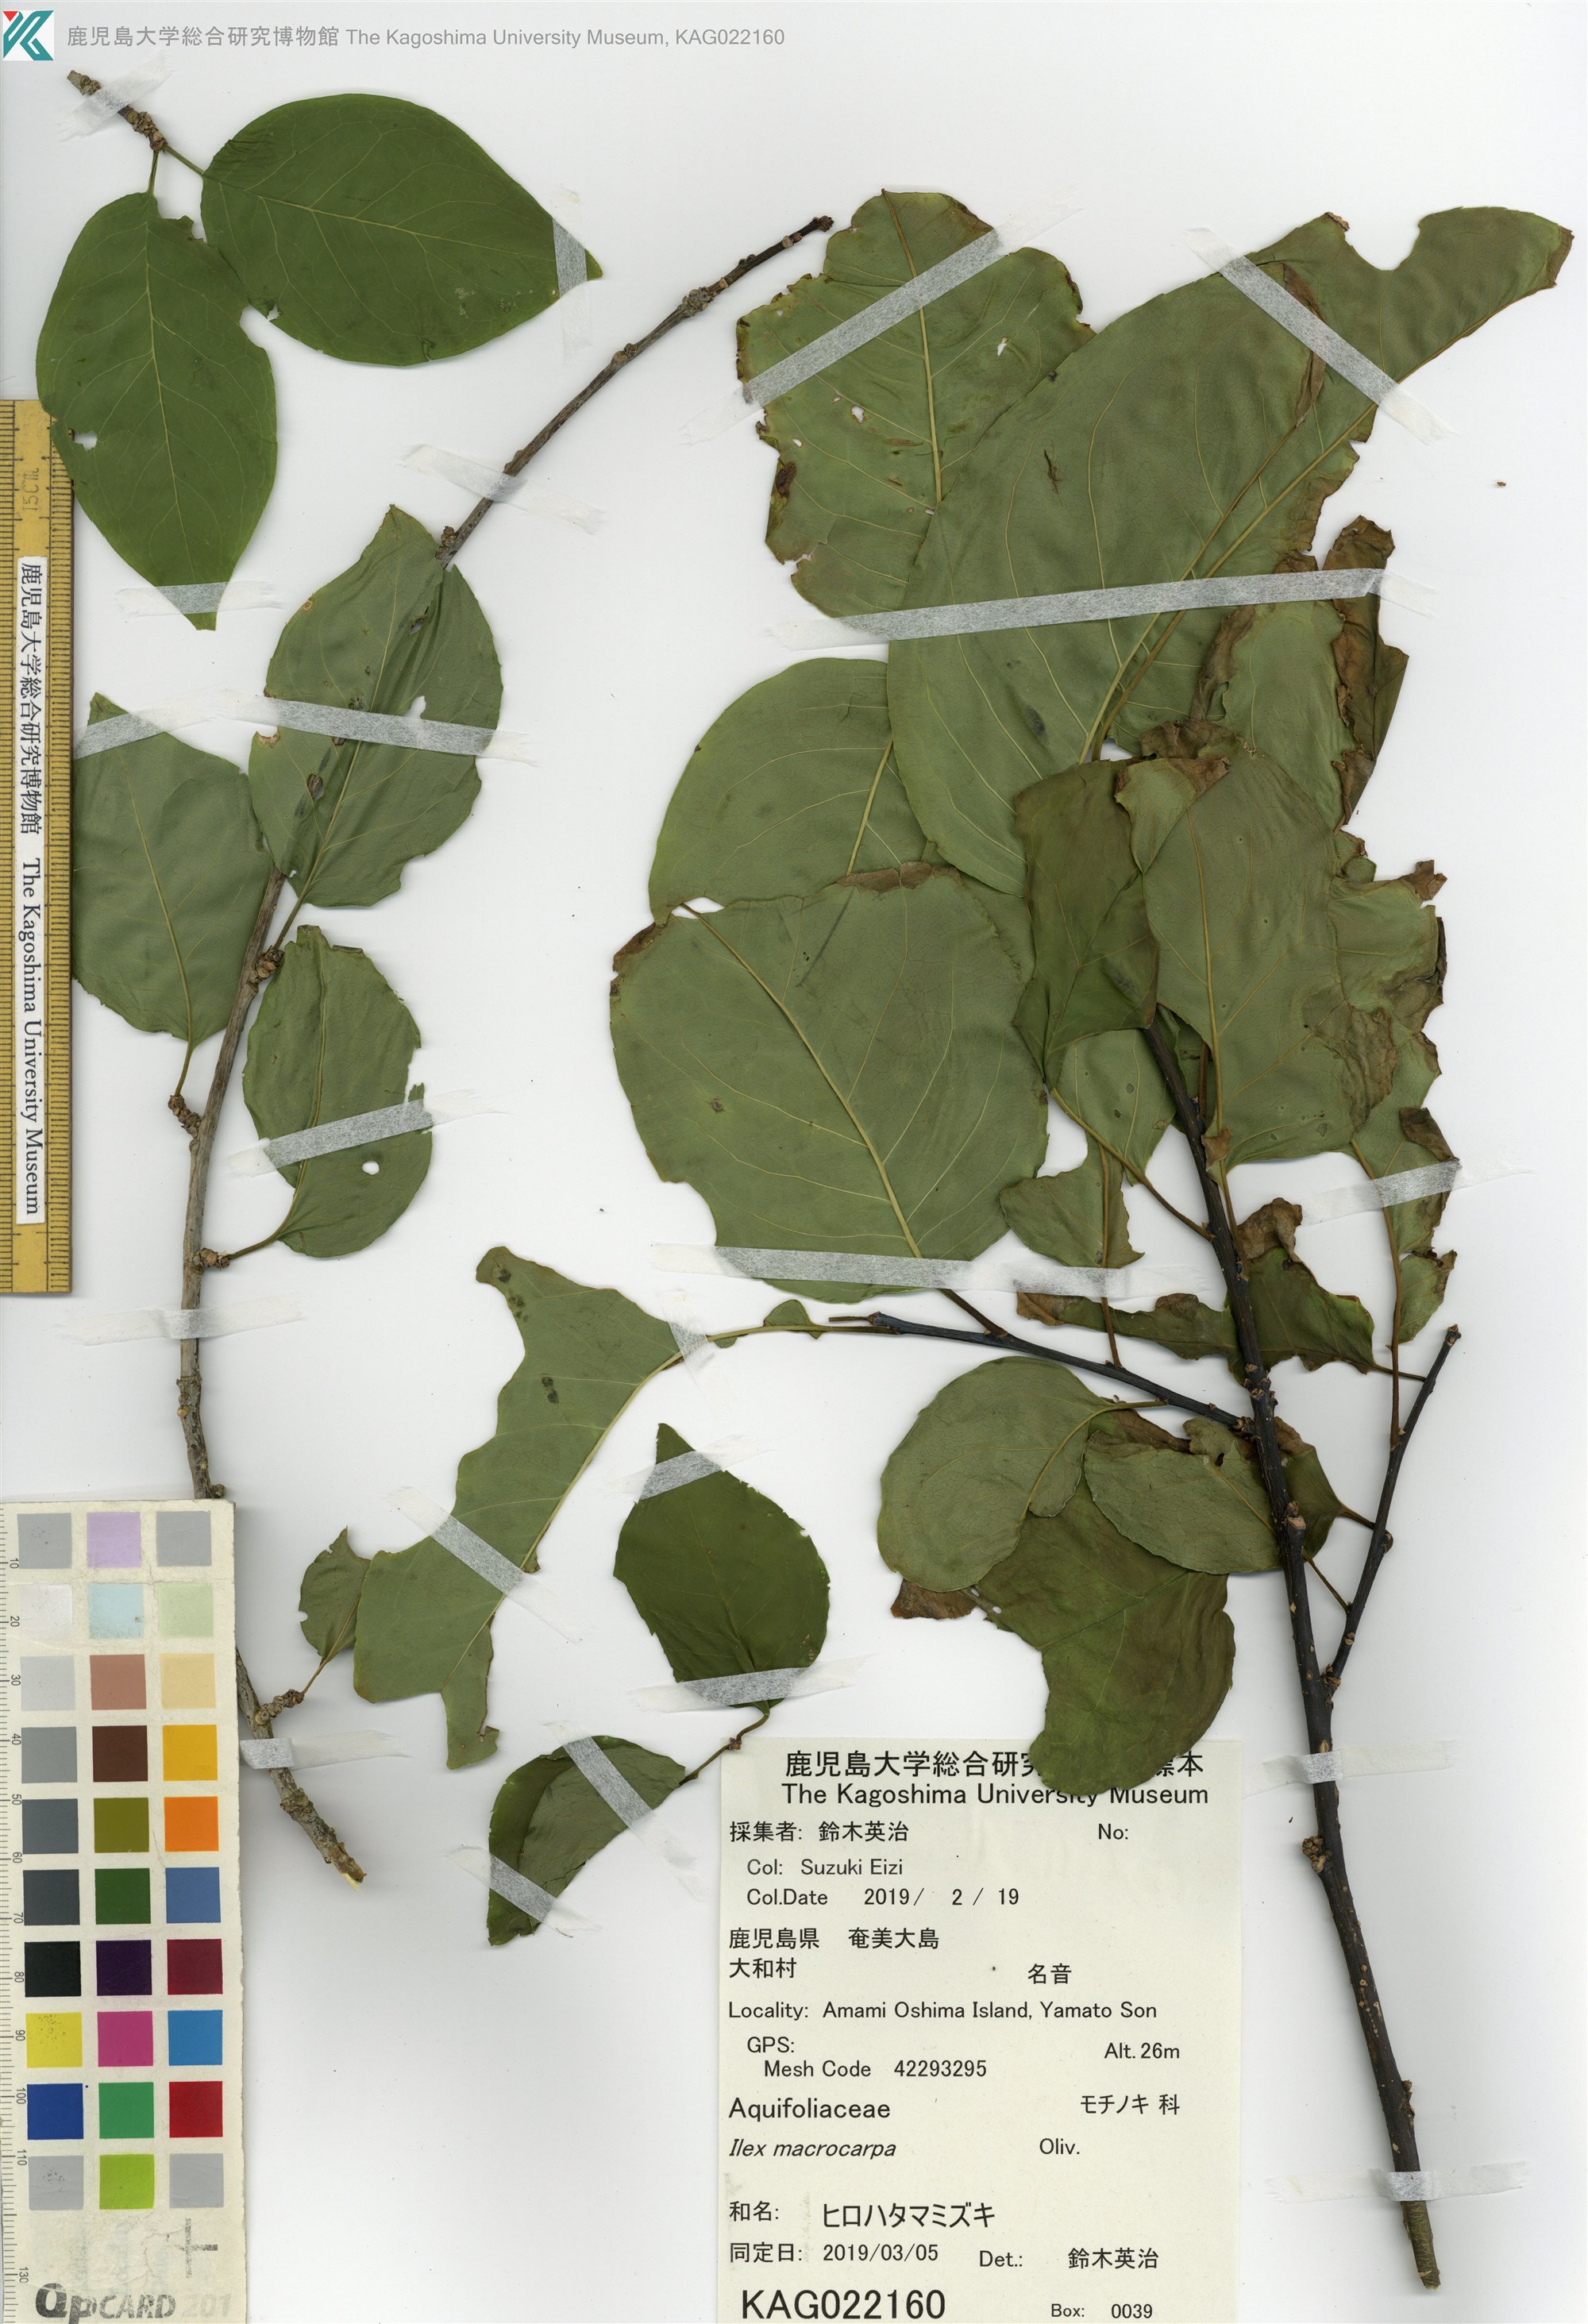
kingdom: Plantae
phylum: Tracheophyta
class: Magnoliopsida
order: Aquifoliales
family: Aquifoliaceae
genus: Ilex
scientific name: Ilex macrocarpa
